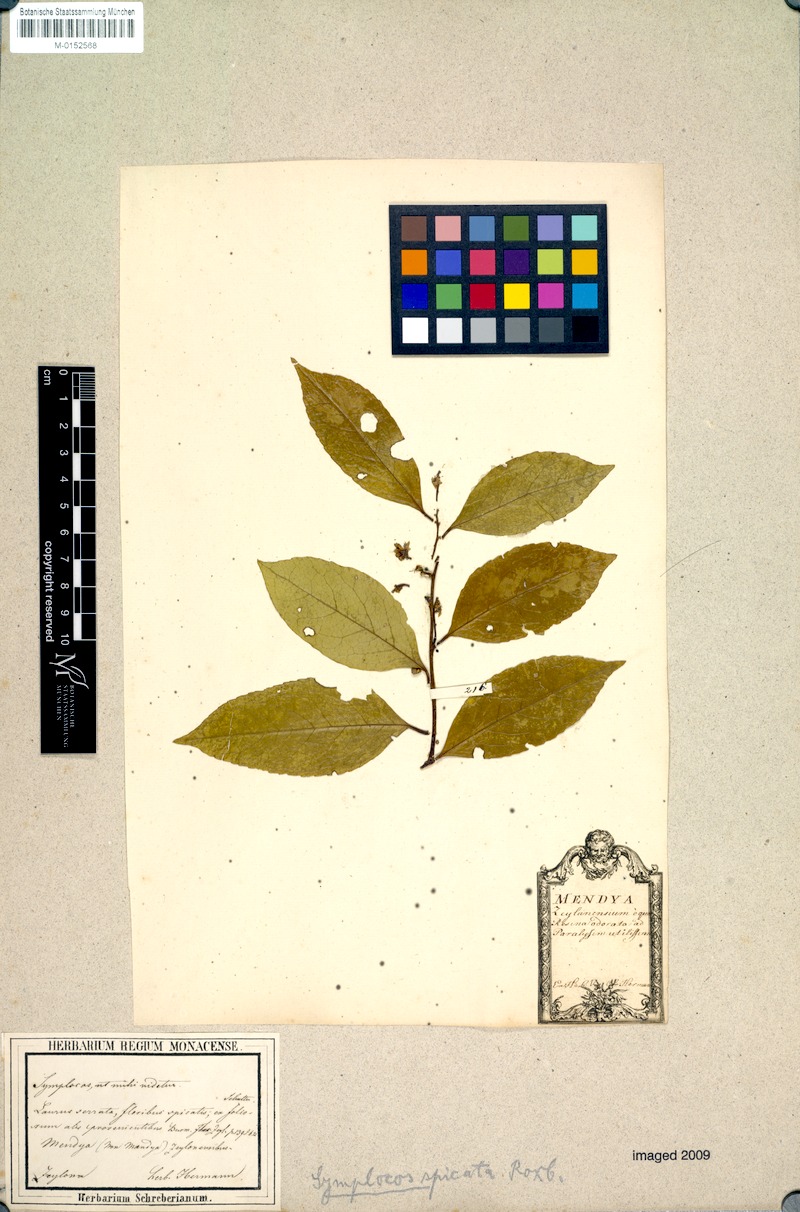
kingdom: Plantae
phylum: Tracheophyta
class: Magnoliopsida
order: Ericales
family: Symplocaceae
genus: Symplocos
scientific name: Symplocos cochinchinensis
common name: Buff hazelwood
